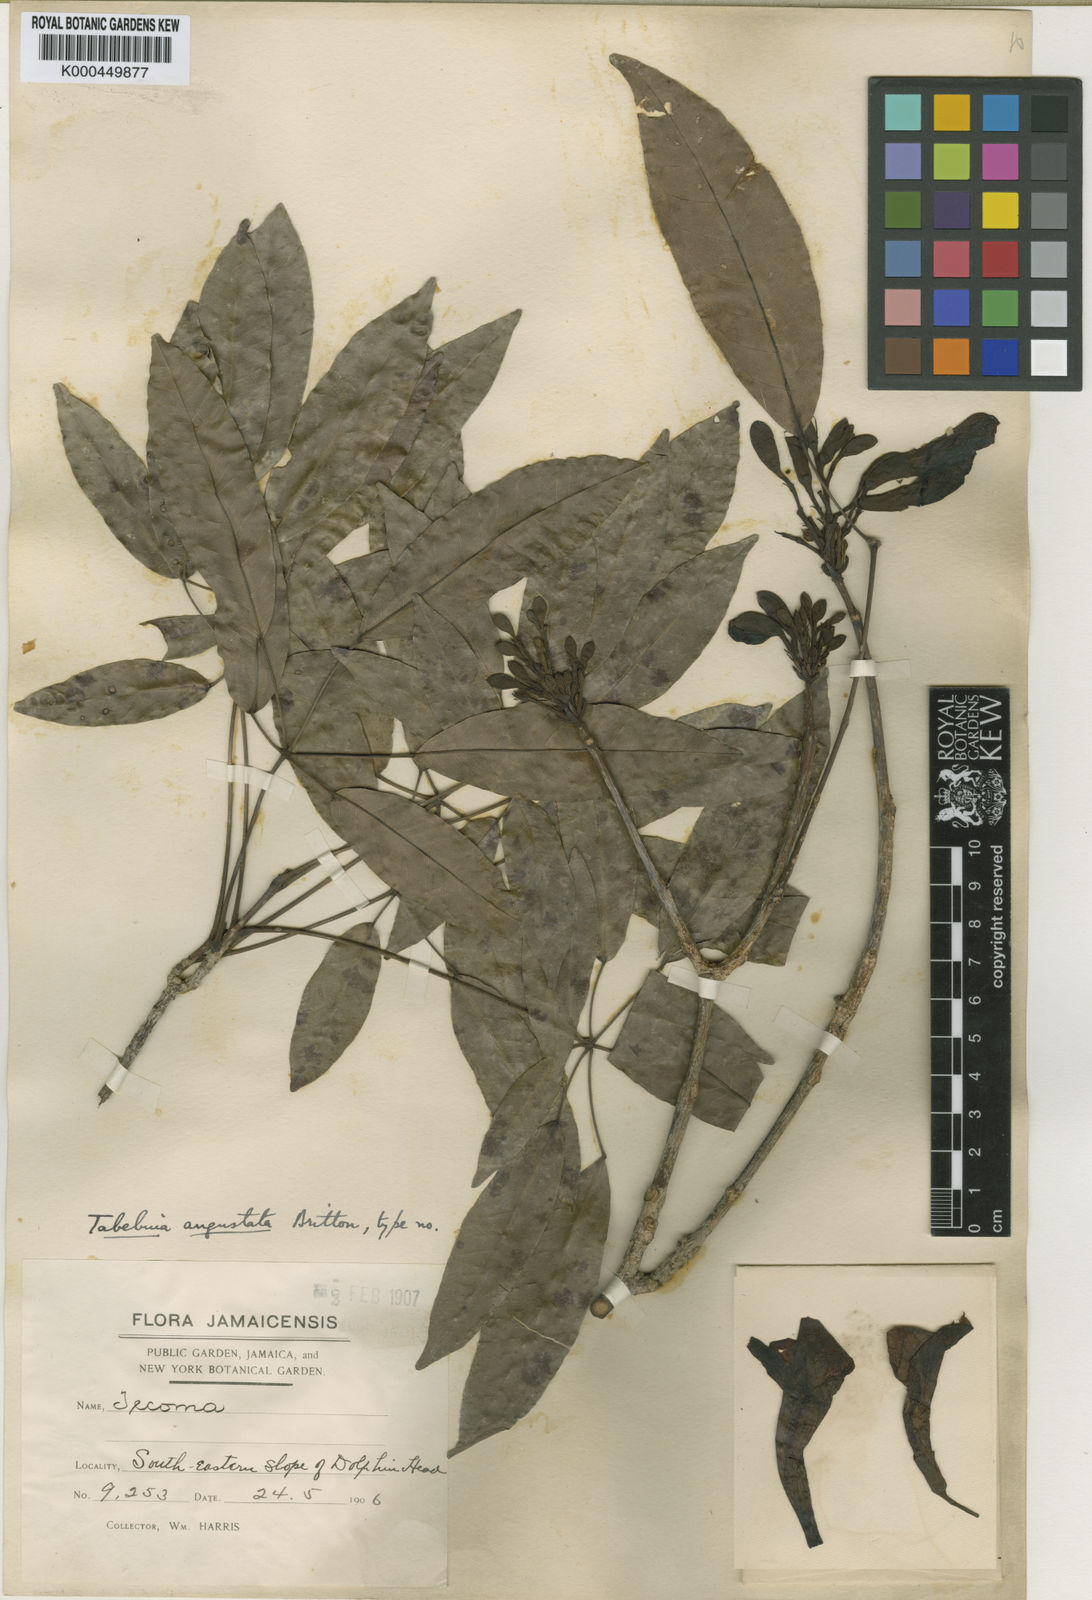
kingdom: Plantae
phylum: Tracheophyta
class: Magnoliopsida
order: Lamiales
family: Bignoniaceae
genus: Tabebuia
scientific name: Tabebuia angustata
